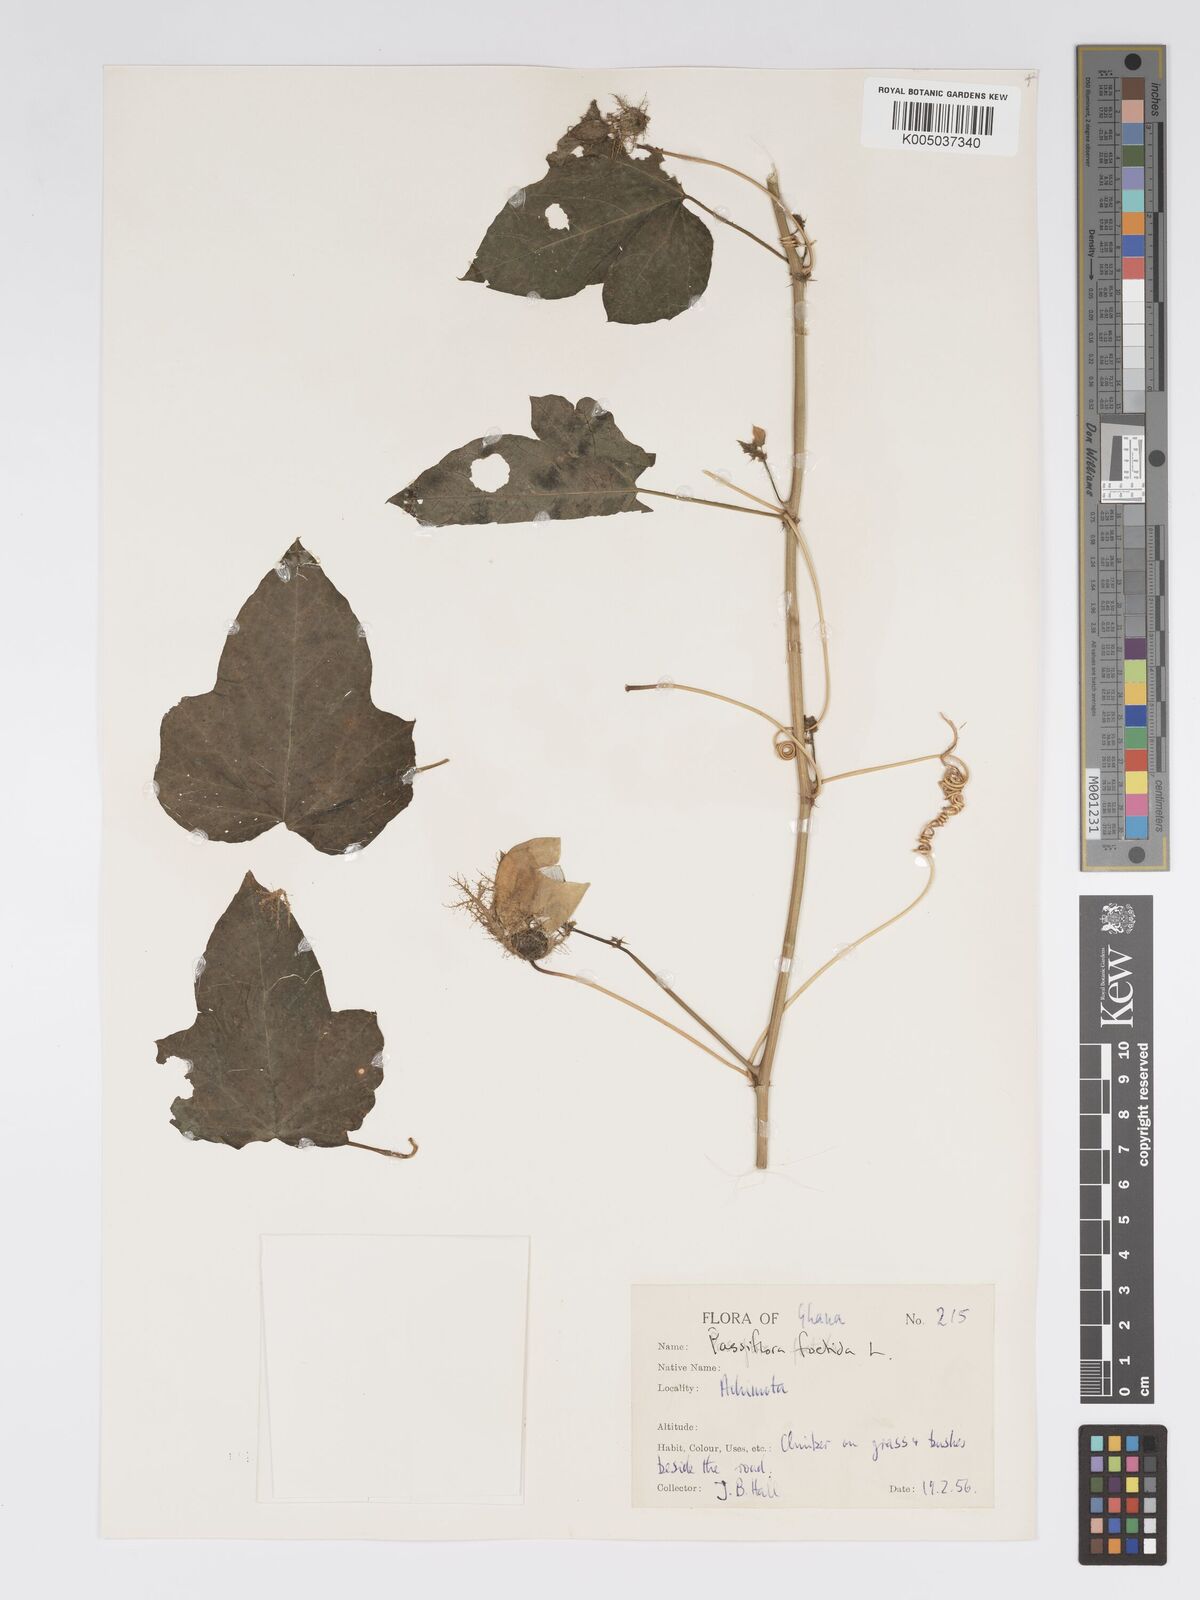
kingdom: Plantae
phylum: Tracheophyta
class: Magnoliopsida
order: Malpighiales
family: Passifloraceae
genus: Passiflora
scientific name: Passiflora foetida
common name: Fetid passionflower
